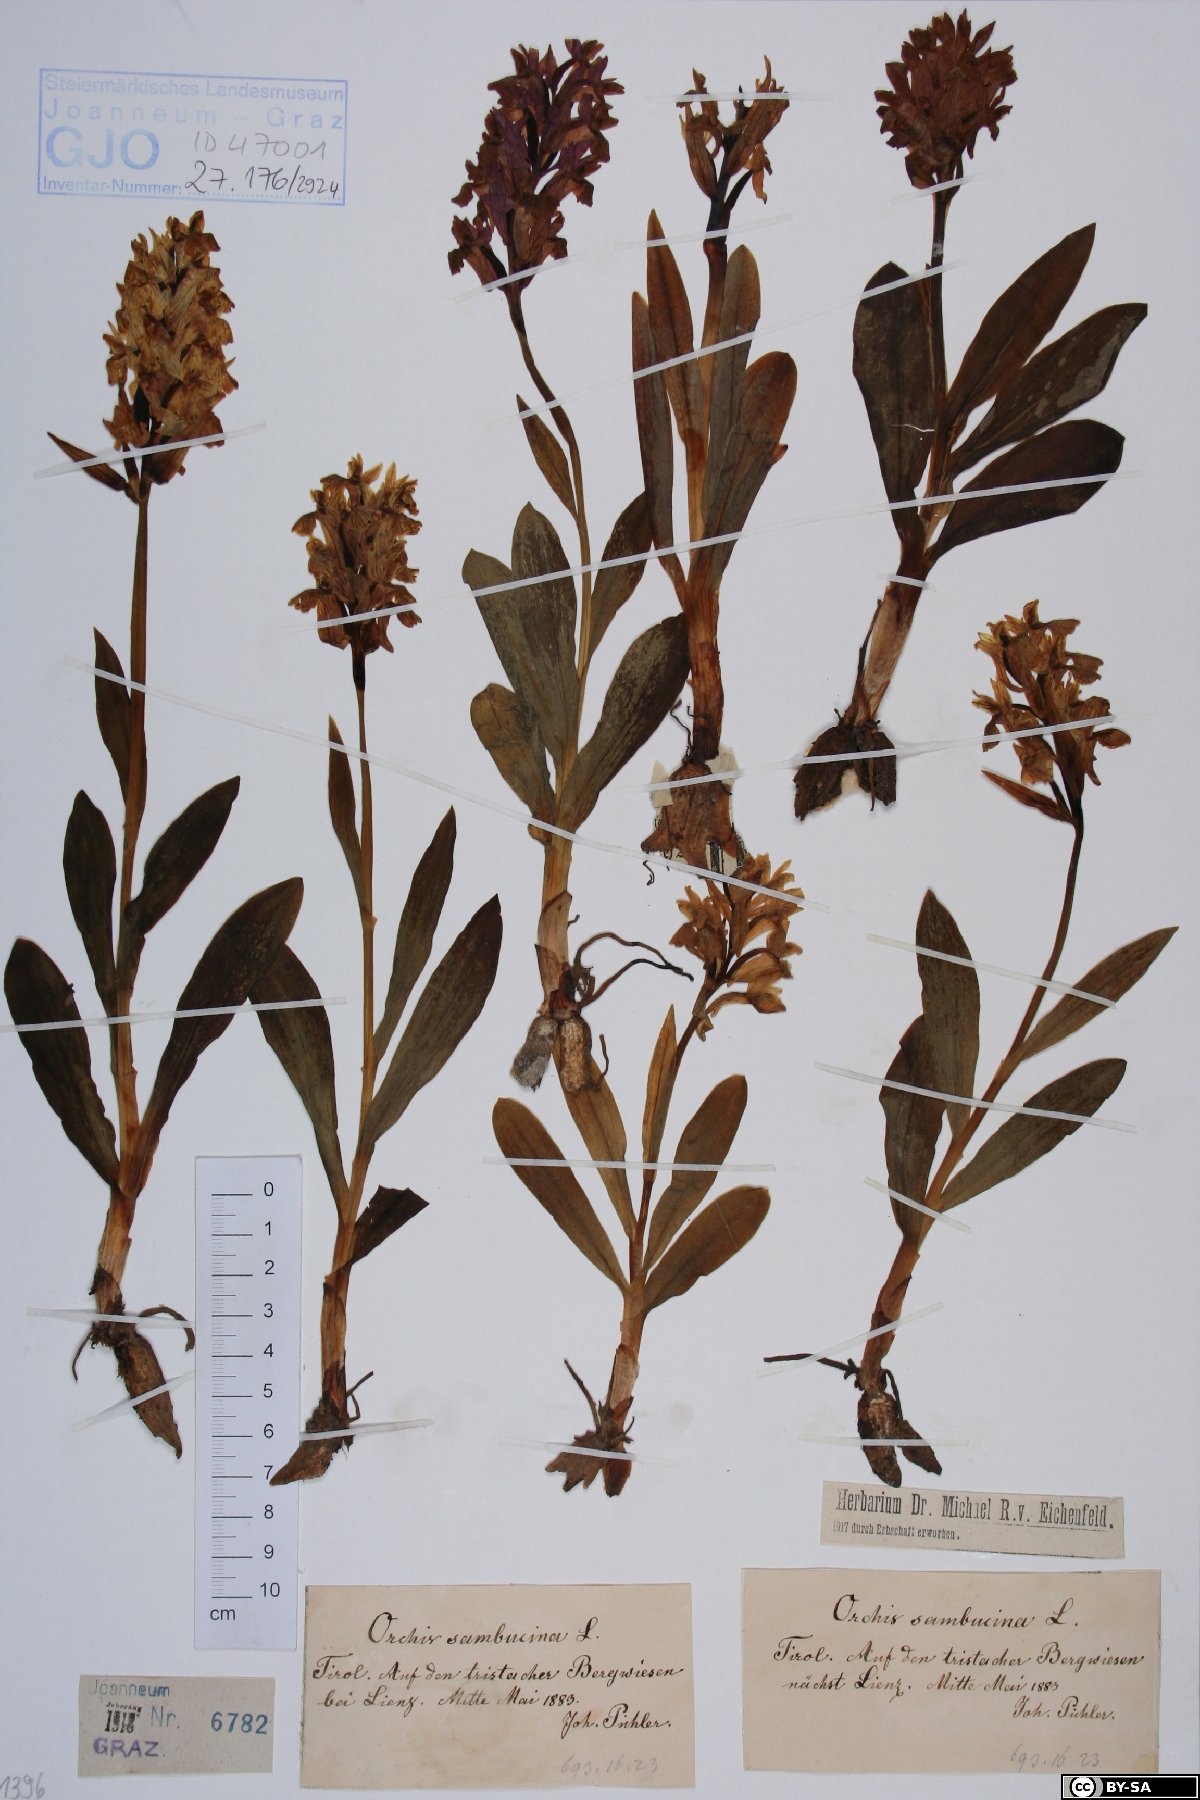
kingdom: Plantae
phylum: Tracheophyta
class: Liliopsida
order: Asparagales
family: Orchidaceae
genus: Dactylorhiza
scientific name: Dactylorhiza sambucina
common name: Elder-flowered orchid
